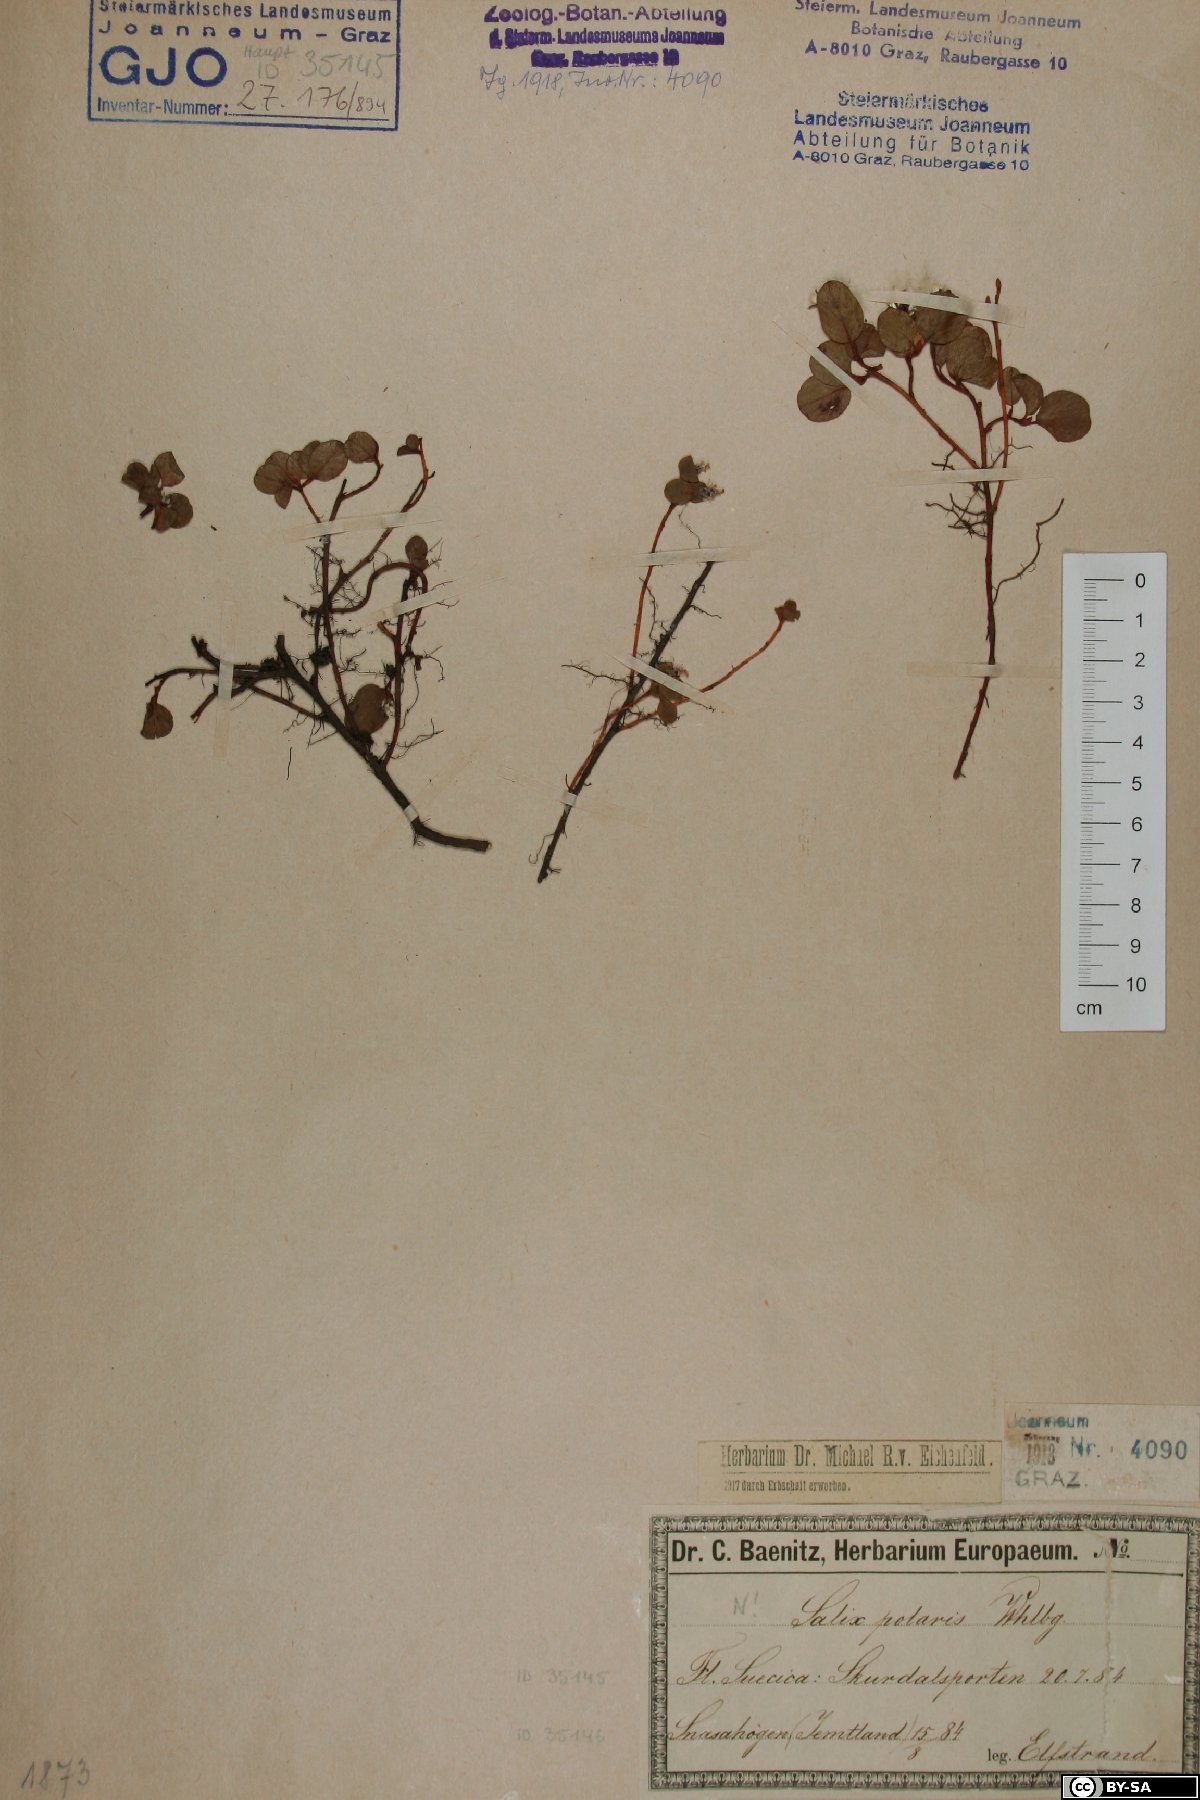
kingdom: Plantae
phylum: Tracheophyta
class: Magnoliopsida
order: Malpighiales
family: Salicaceae
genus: Salix
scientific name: Salix polaris
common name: Polar willow
